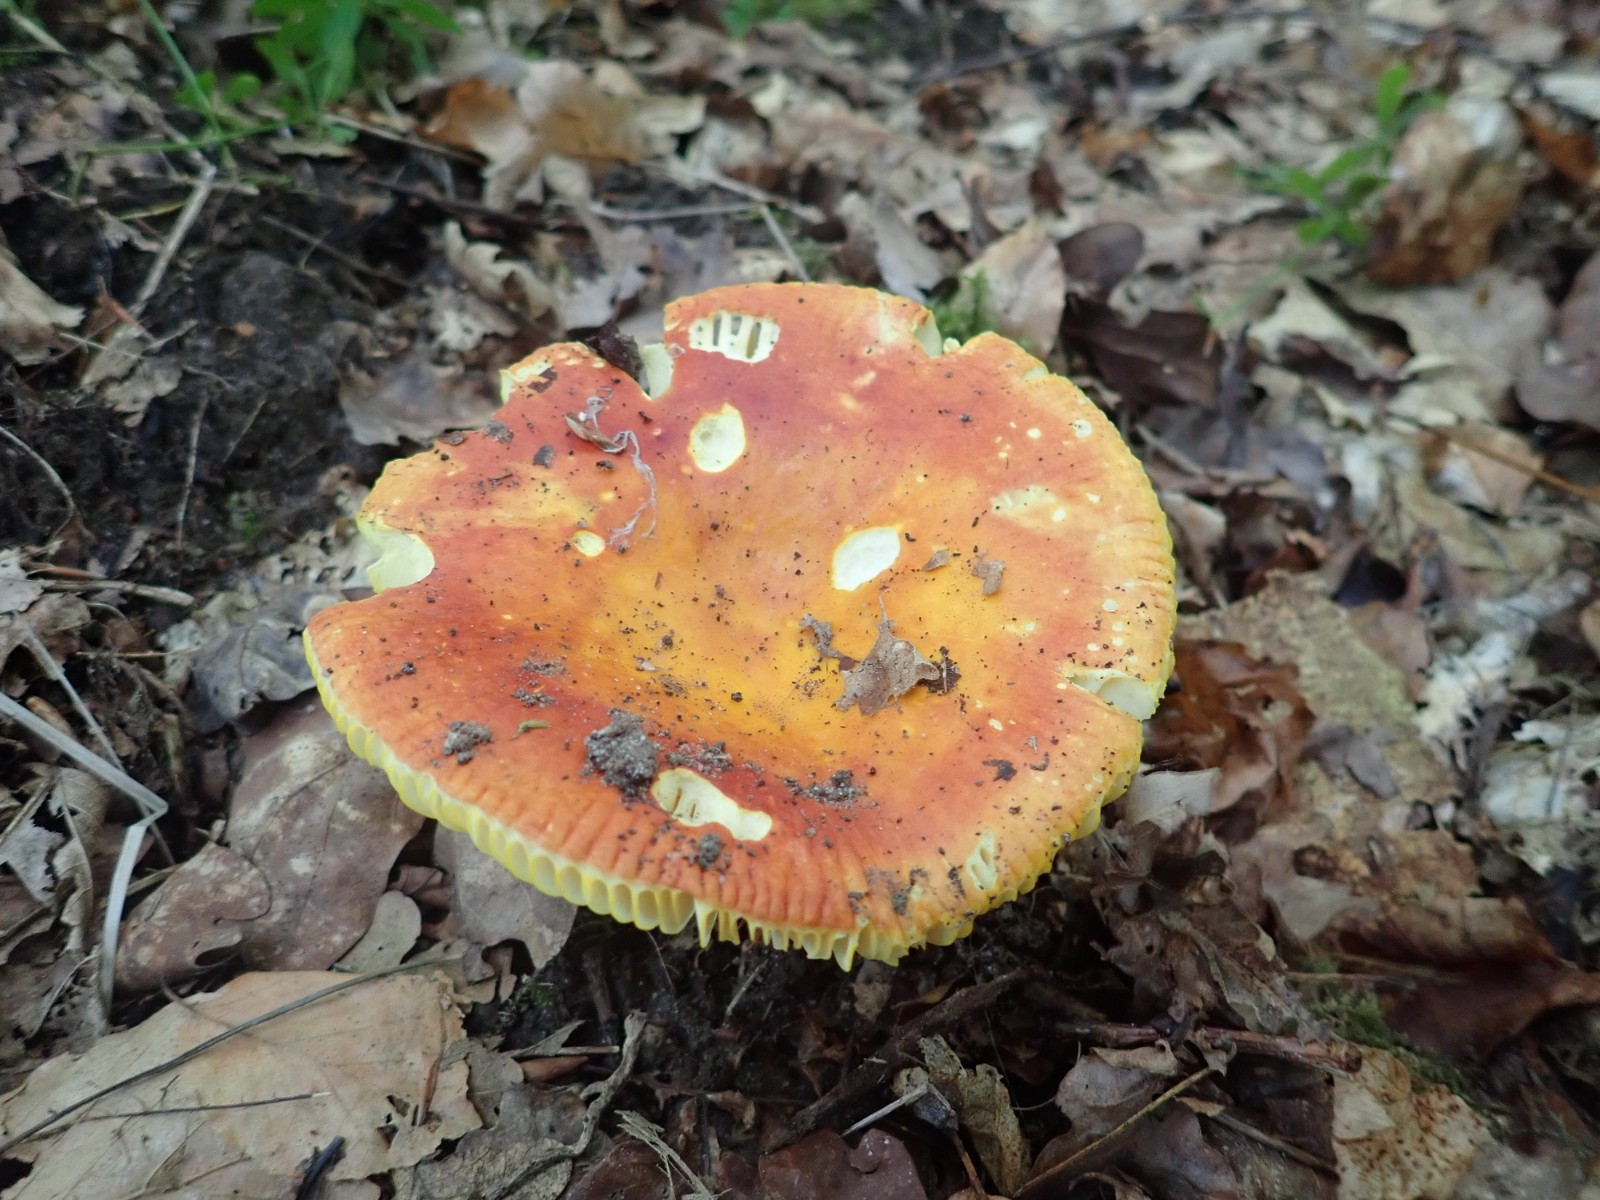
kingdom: Fungi
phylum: Basidiomycota
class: Agaricomycetes
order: Russulales
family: Russulaceae
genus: Russula
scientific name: Russula aurea
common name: gylden skørhat
